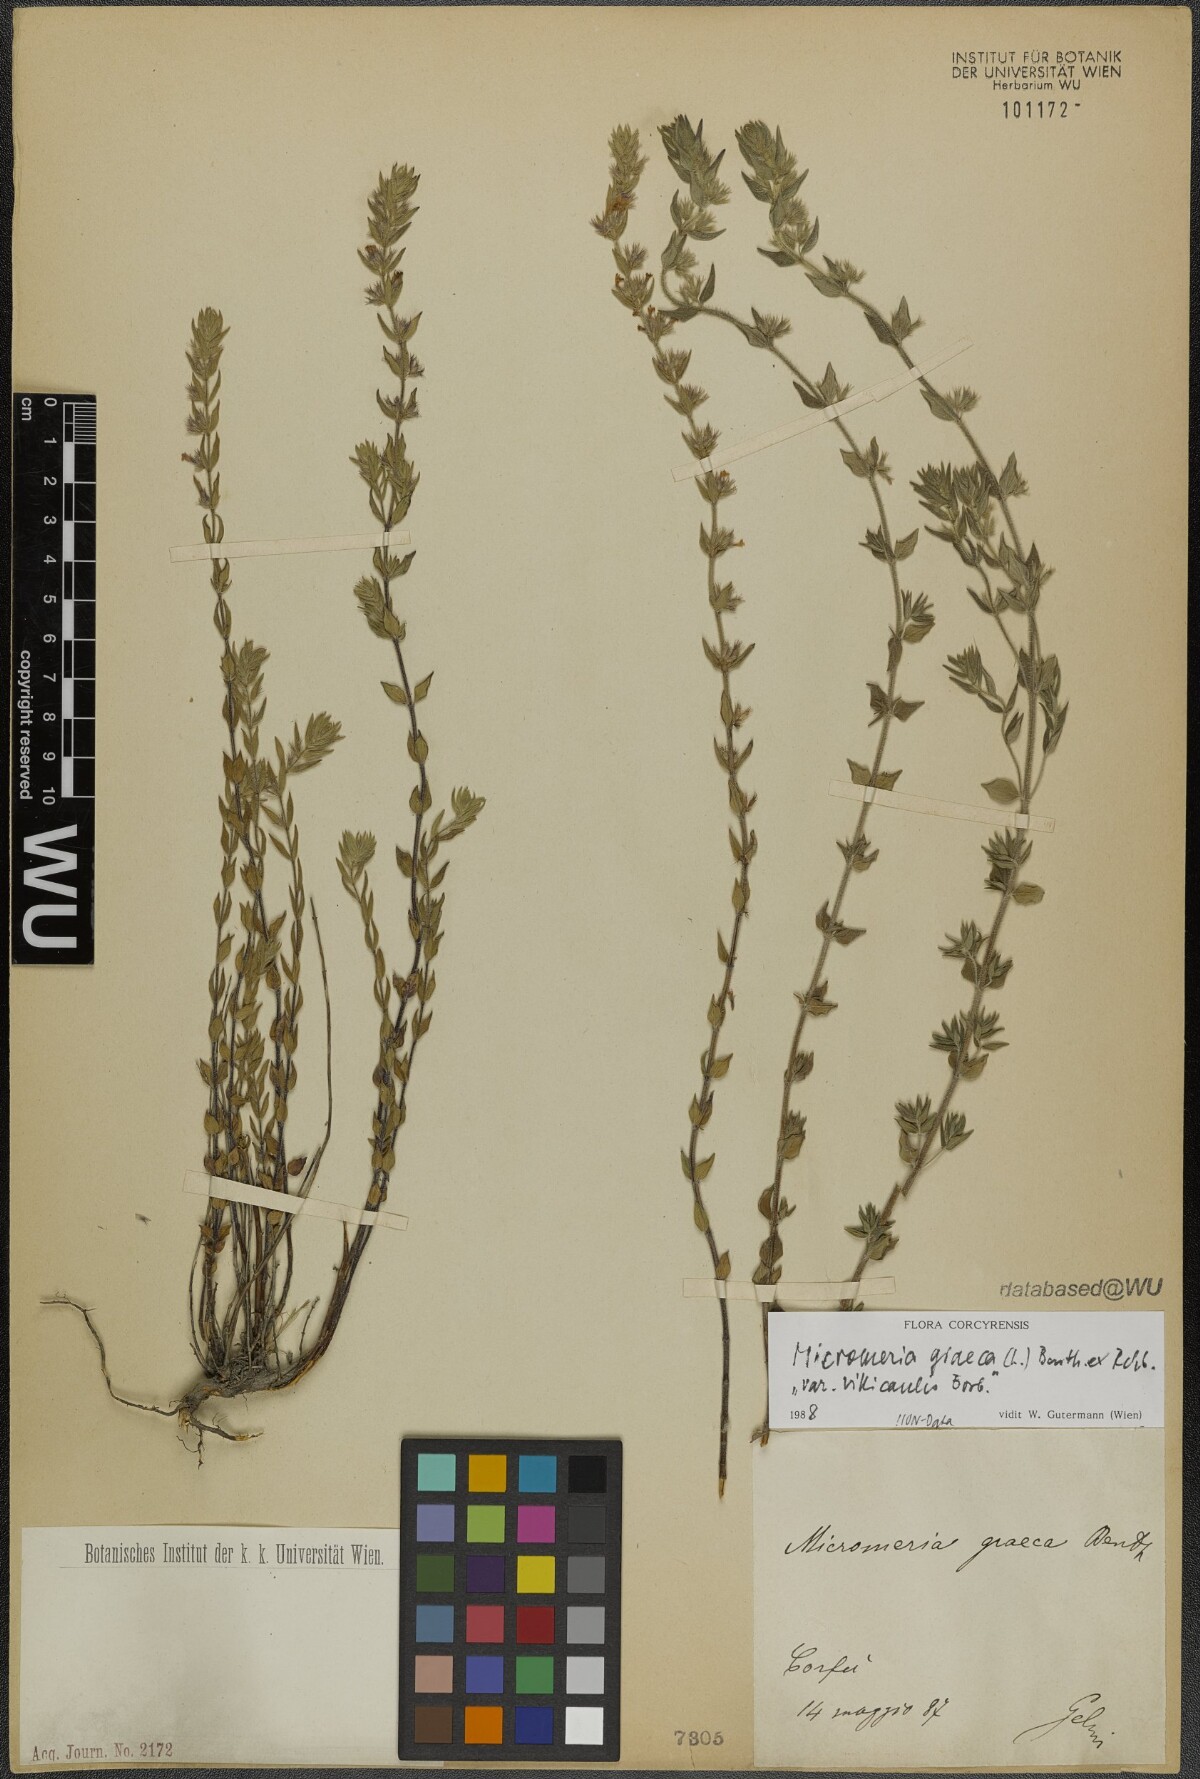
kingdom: Plantae
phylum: Tracheophyta
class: Magnoliopsida
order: Lamiales
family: Lamiaceae
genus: Micromeria
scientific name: Micromeria graeca
